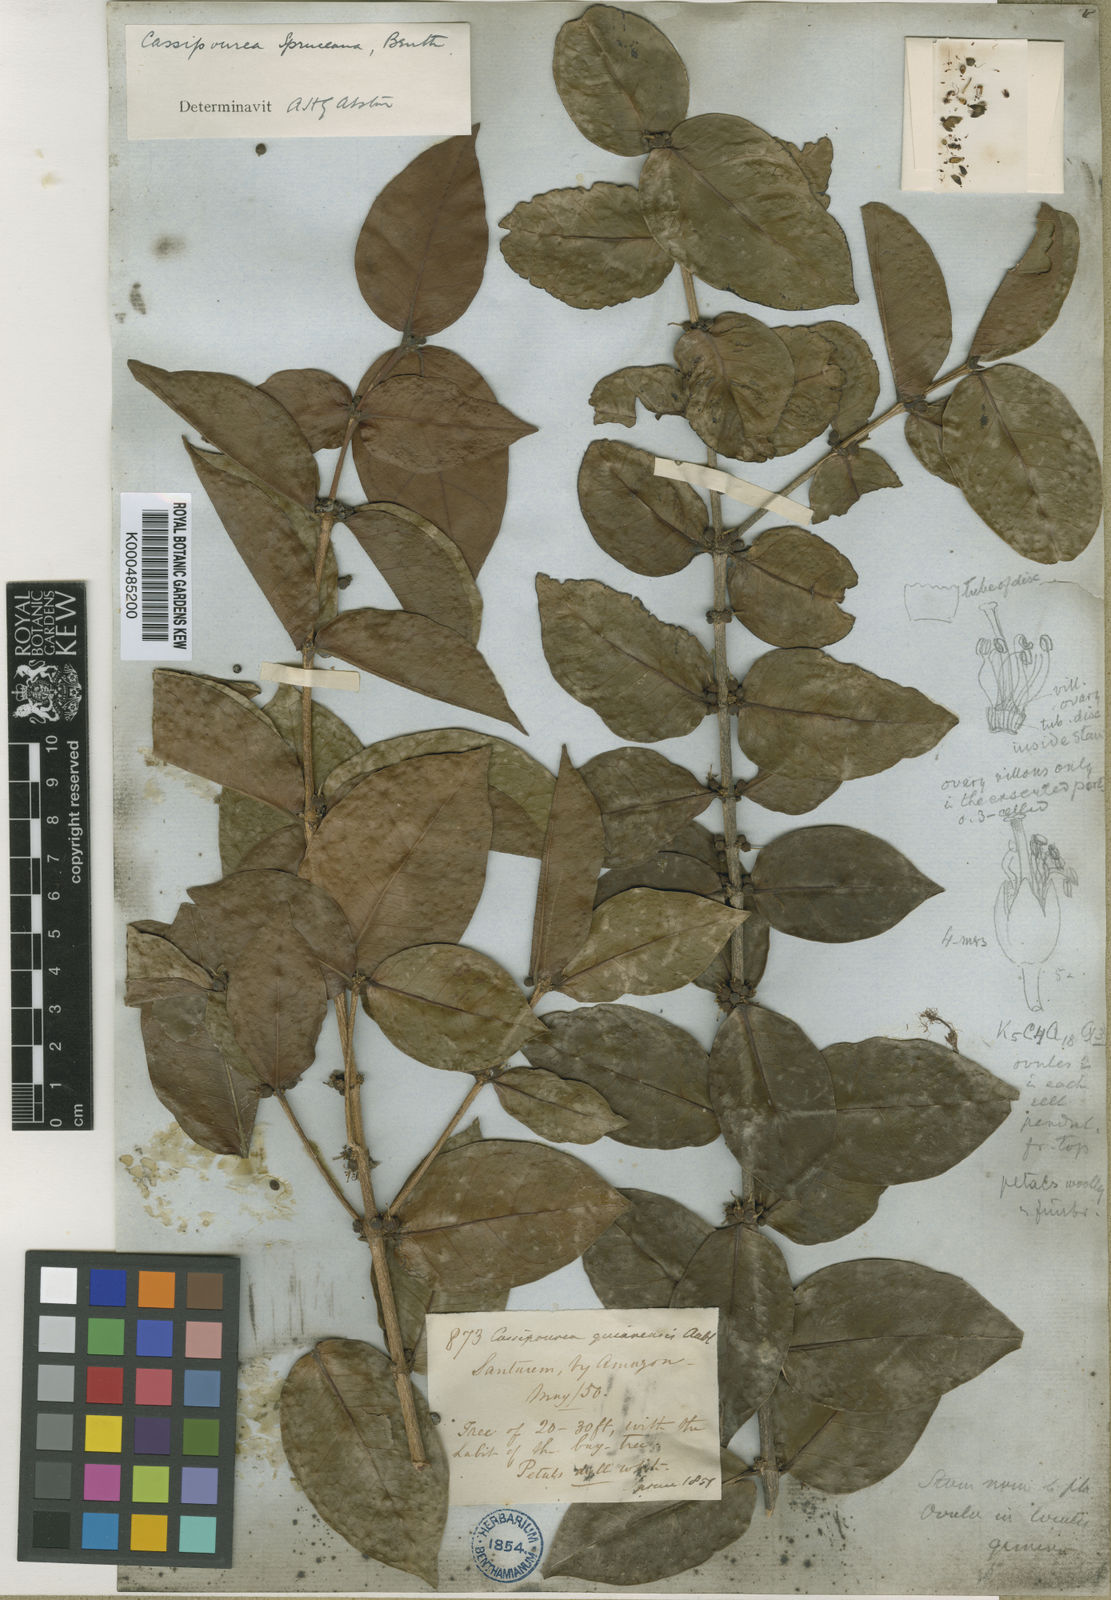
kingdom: Plantae
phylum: Tracheophyta
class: Magnoliopsida
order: Malpighiales
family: Rhizophoraceae
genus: Cassipourea
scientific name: Cassipourea spruceana
